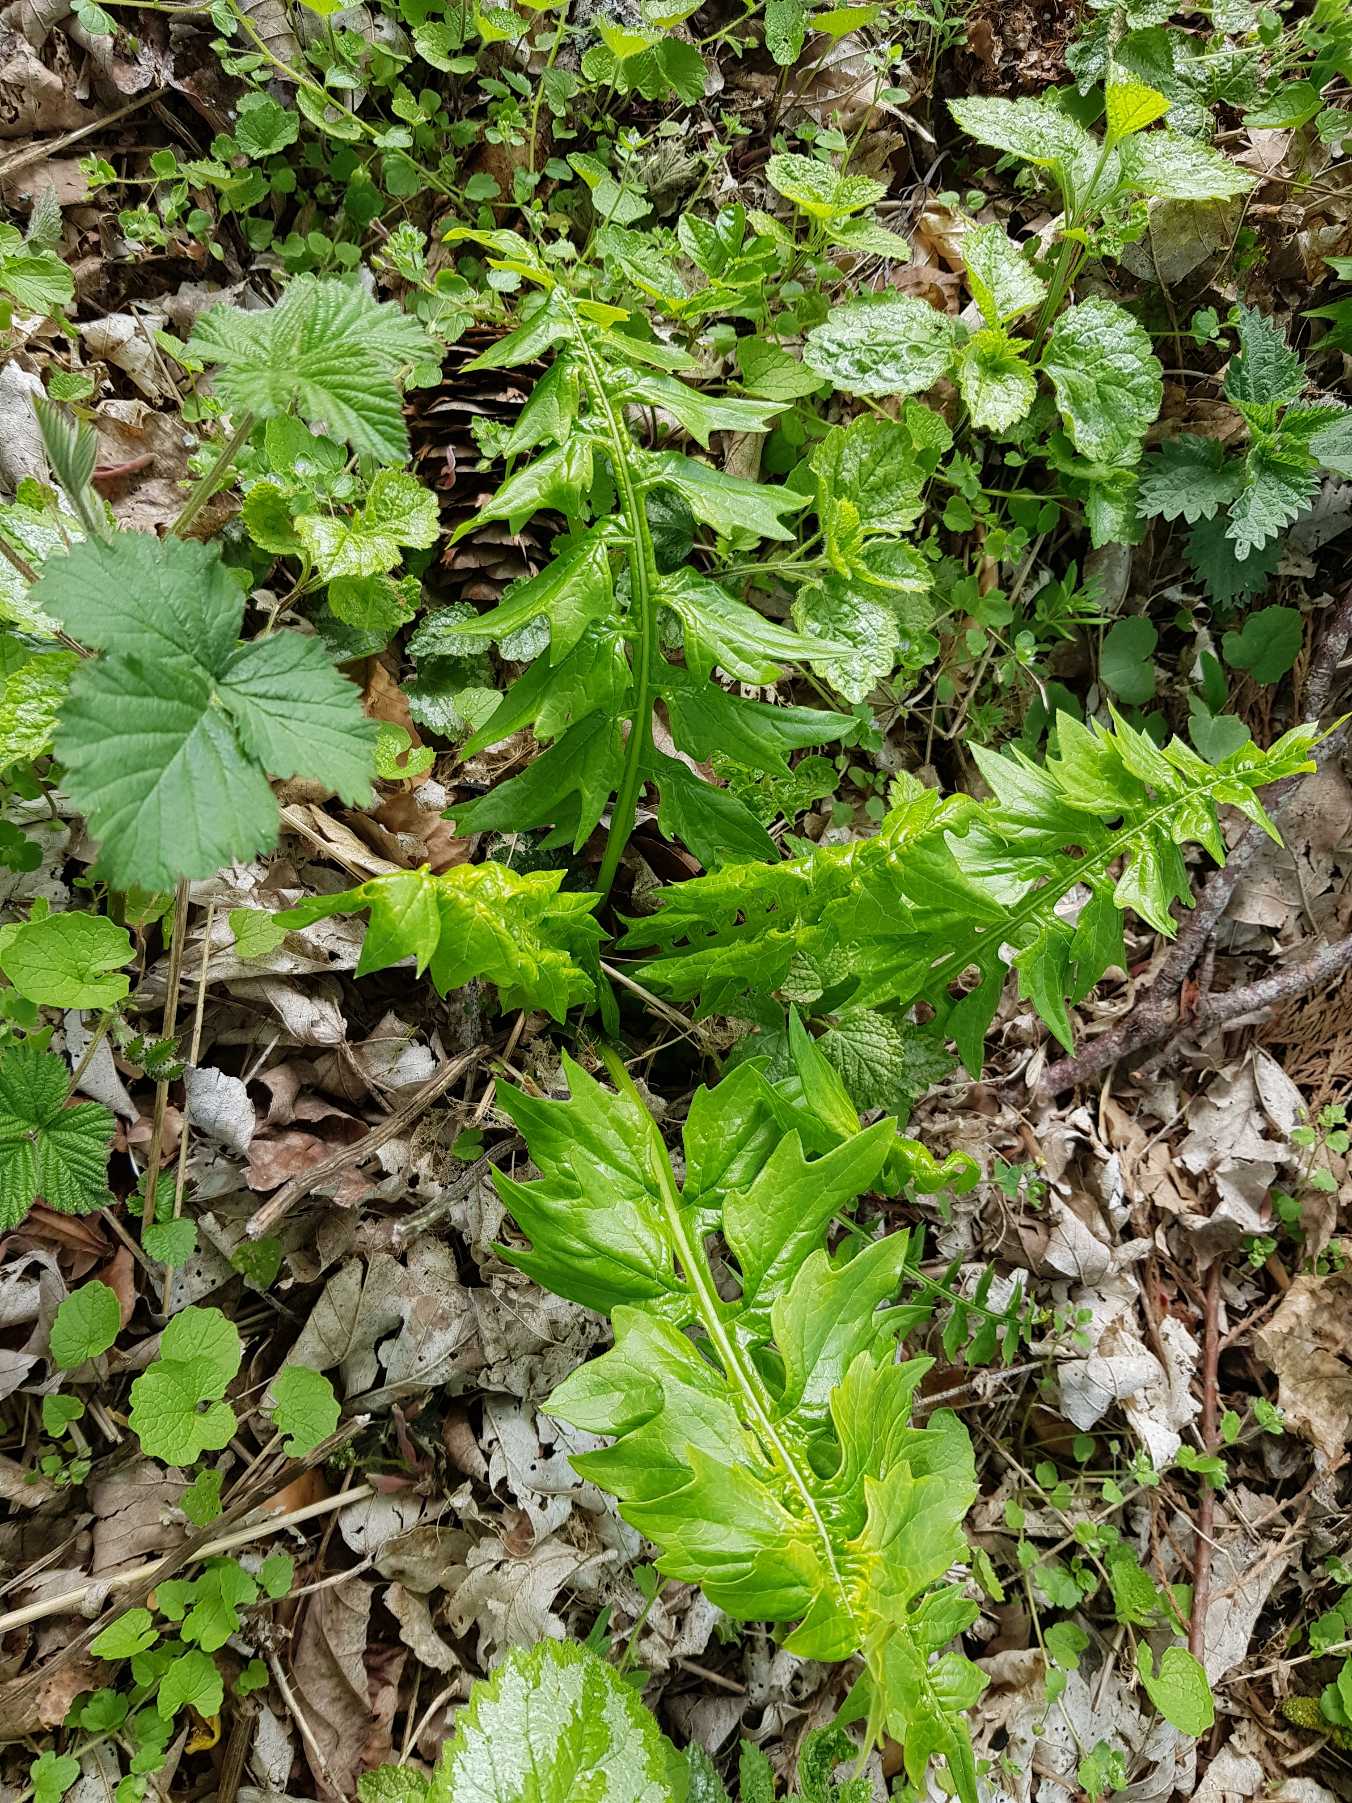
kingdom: Plantae
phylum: Tracheophyta
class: Magnoliopsida
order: Lamiales
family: Acanthaceae
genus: Acanthus
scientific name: Acanthus hungaricus
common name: Balkantidsel
